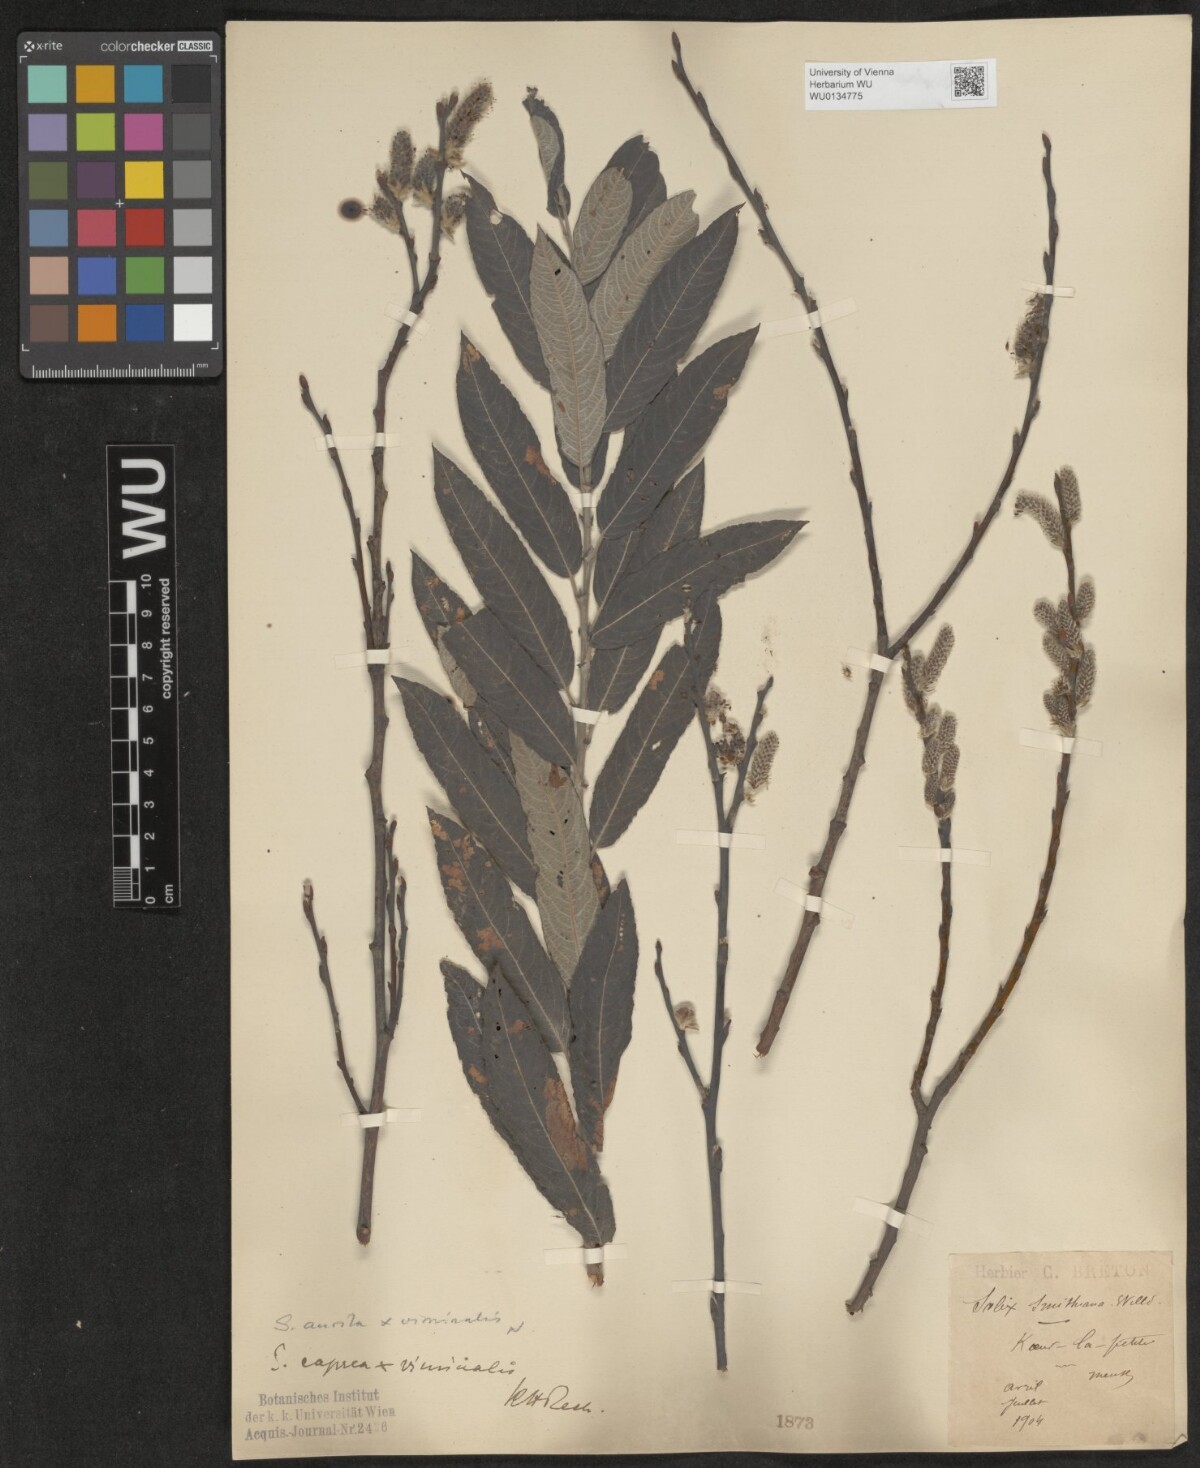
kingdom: Plantae
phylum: Tracheophyta
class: Magnoliopsida
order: Malpighiales
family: Salicaceae
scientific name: Salicaceae
